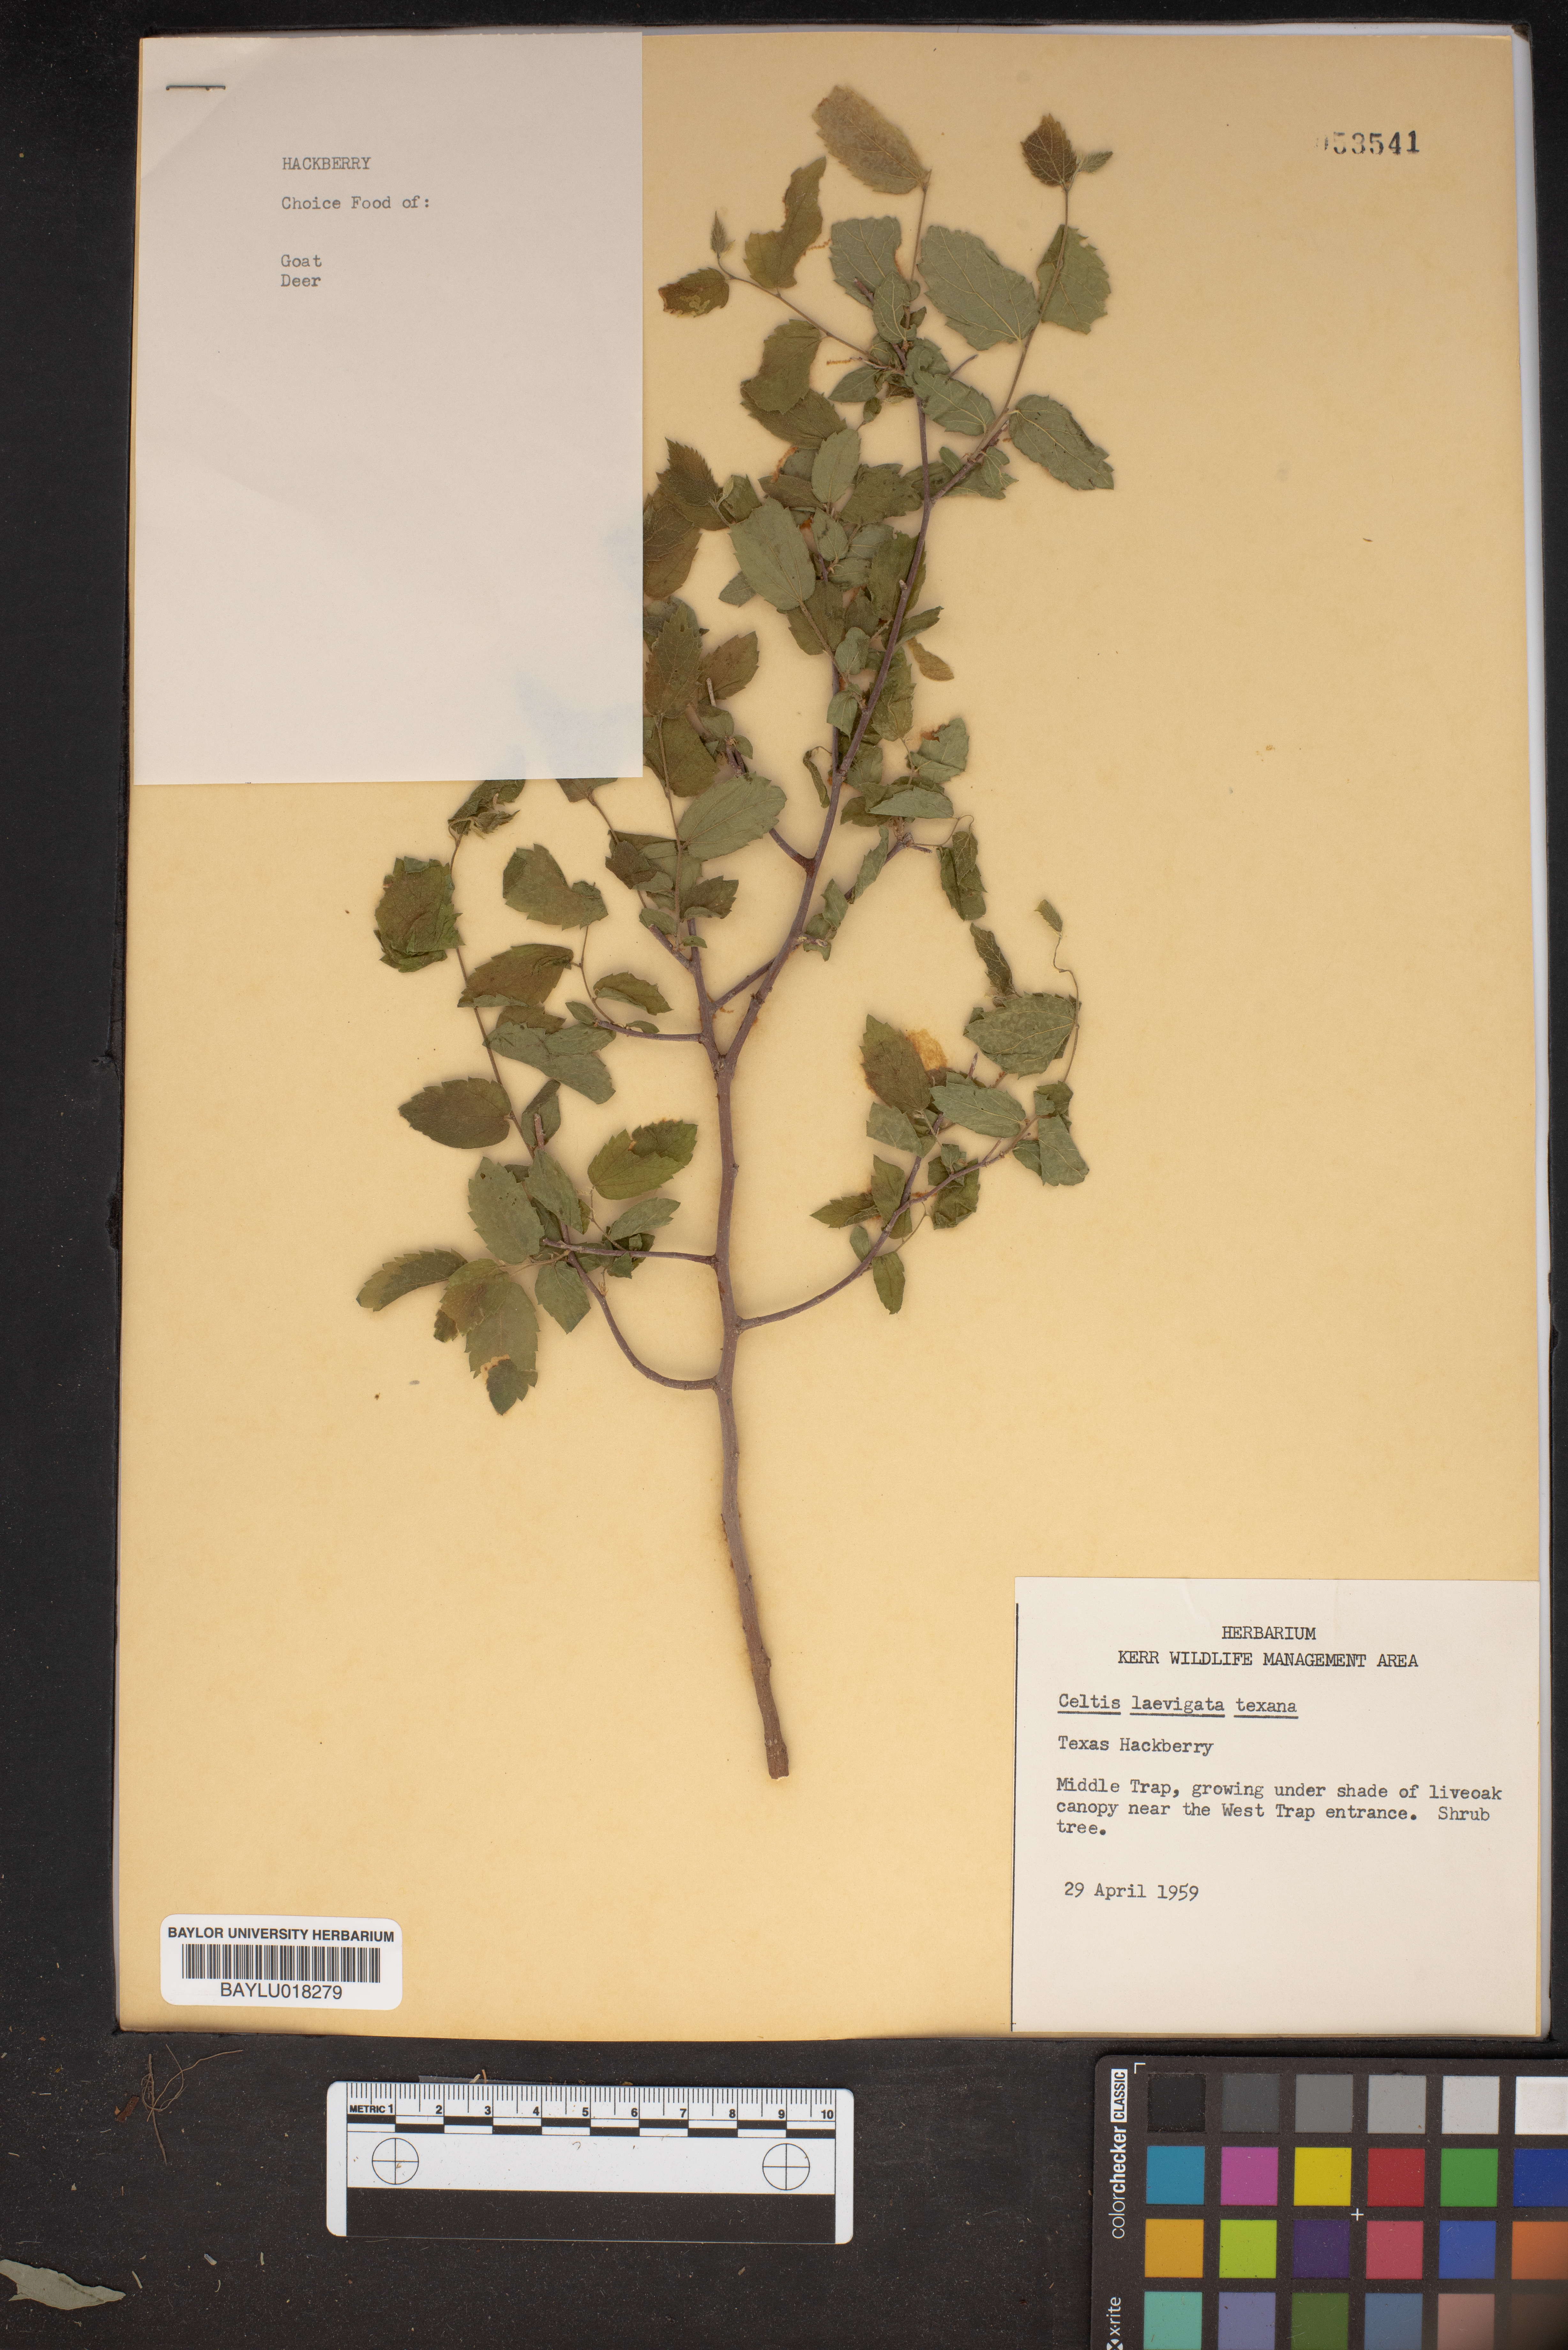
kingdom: Plantae
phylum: Tracheophyta
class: Magnoliopsida
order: Rosales
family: Cannabaceae
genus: Celtis
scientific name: Celtis laevigata
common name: Sugarberry
